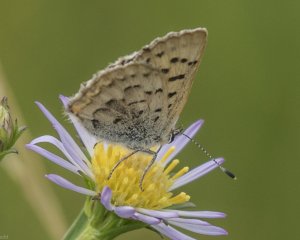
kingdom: Animalia
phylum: Arthropoda
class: Insecta
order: Lepidoptera
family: Lycaenidae
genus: Epidemia
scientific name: Epidemia dorcas
